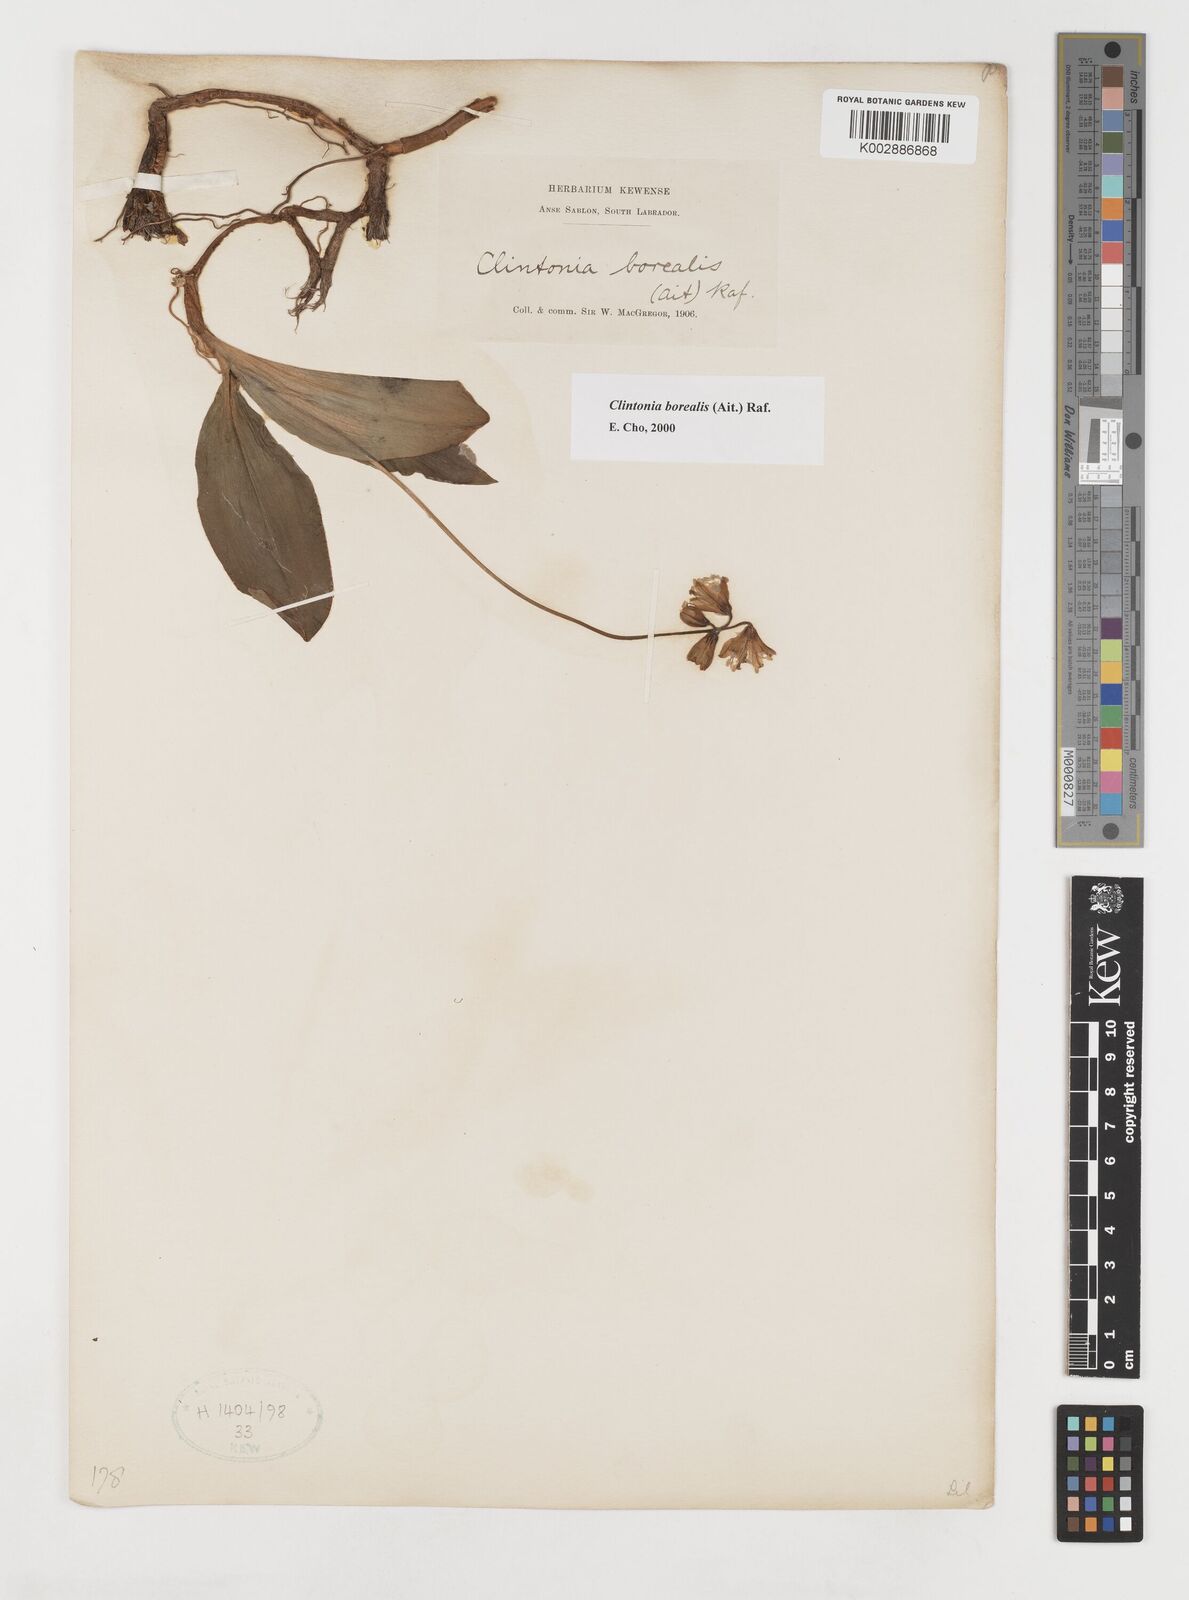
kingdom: Plantae
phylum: Tracheophyta
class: Liliopsida
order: Liliales
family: Liliaceae
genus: Clintonia
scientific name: Clintonia borealis
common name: Yellow clintonia
